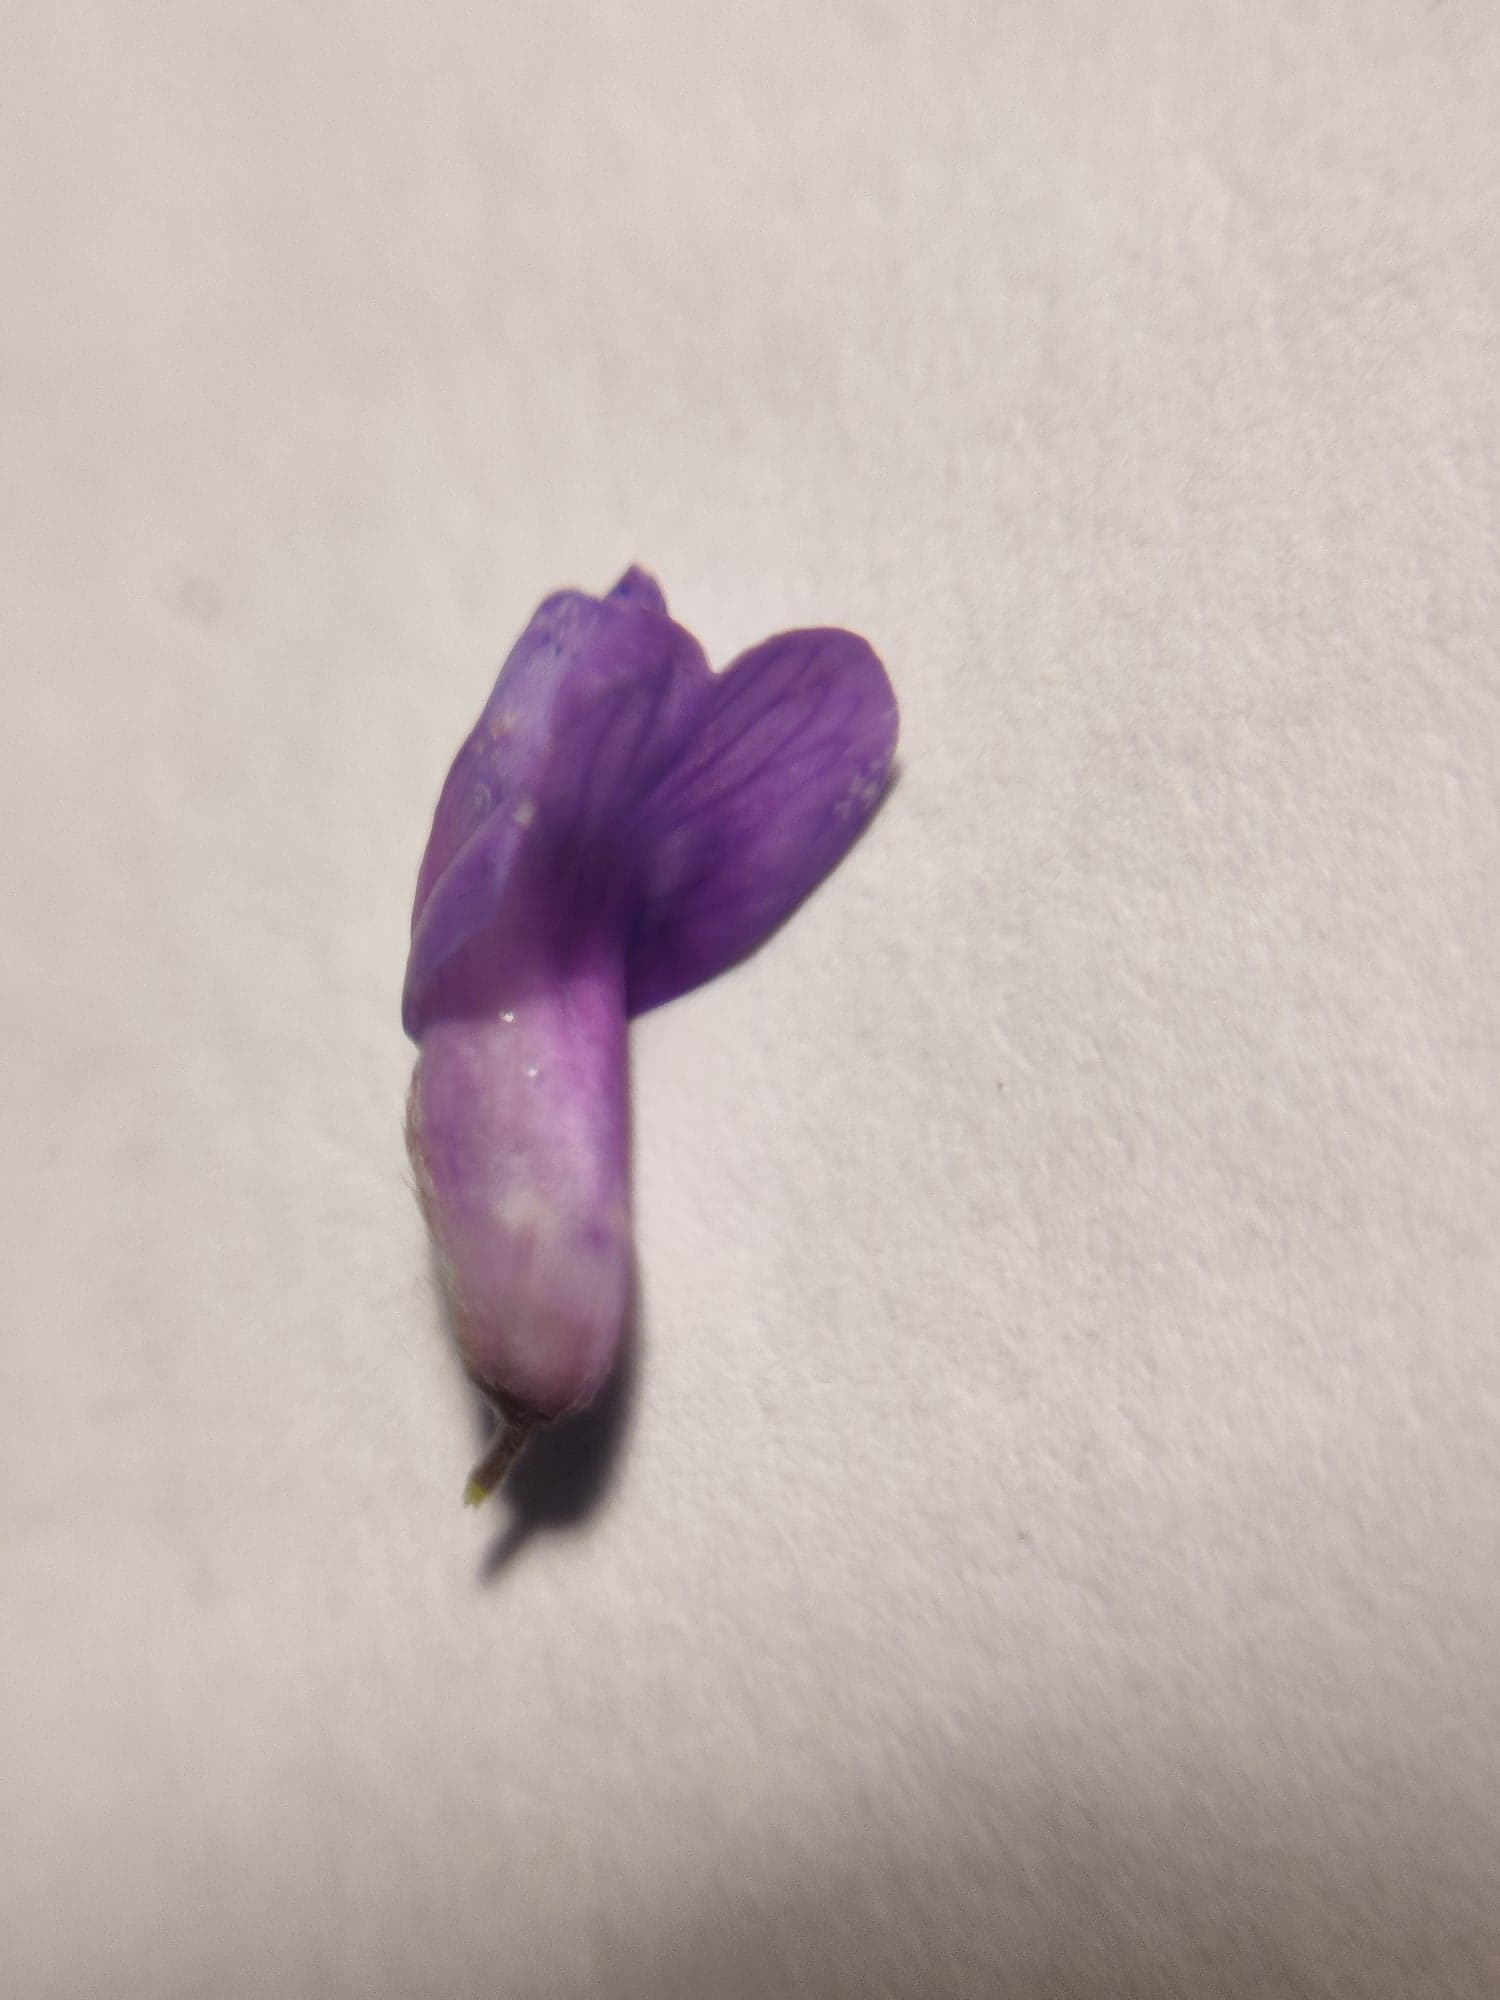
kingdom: Plantae
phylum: Tracheophyta
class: Magnoliopsida
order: Fabales
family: Fabaceae
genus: Vicia
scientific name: Vicia cracca
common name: Muse-vikke
